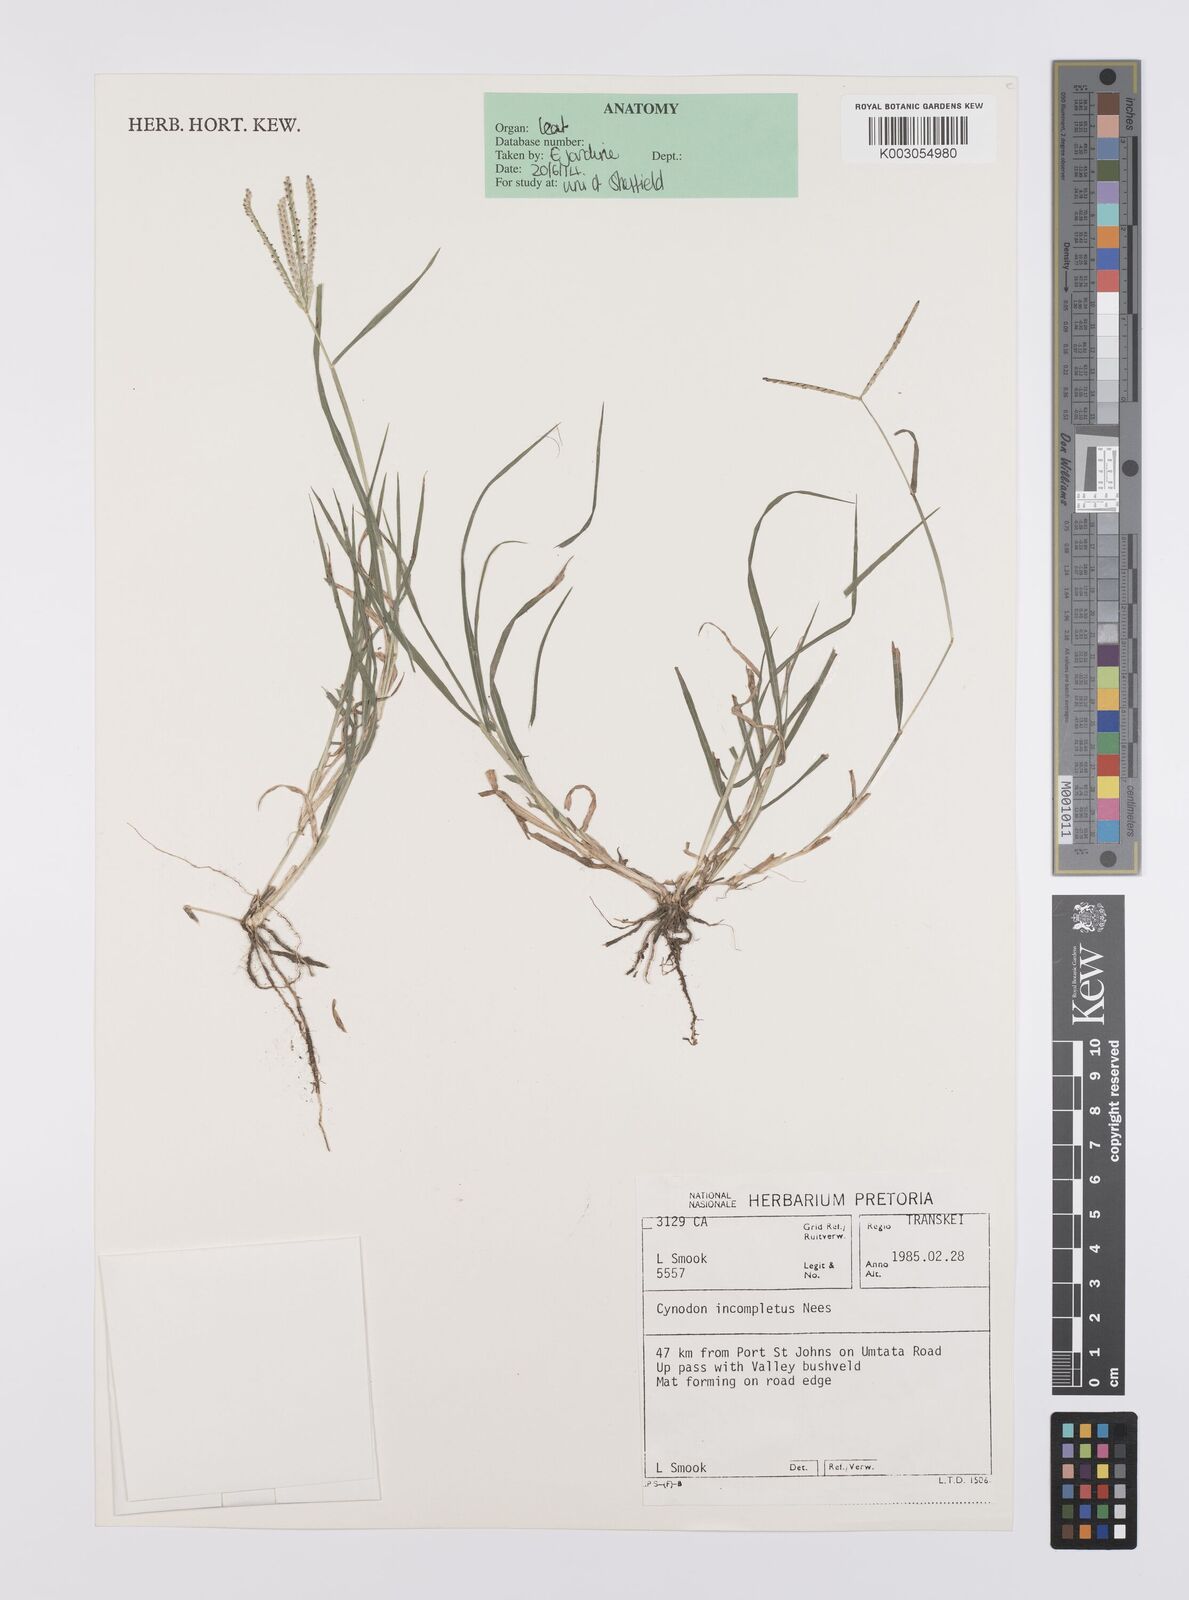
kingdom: Plantae
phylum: Tracheophyta
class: Liliopsida
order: Poales
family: Poaceae
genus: Cynodon
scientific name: Cynodon incompletus
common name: African bermuda-grass
